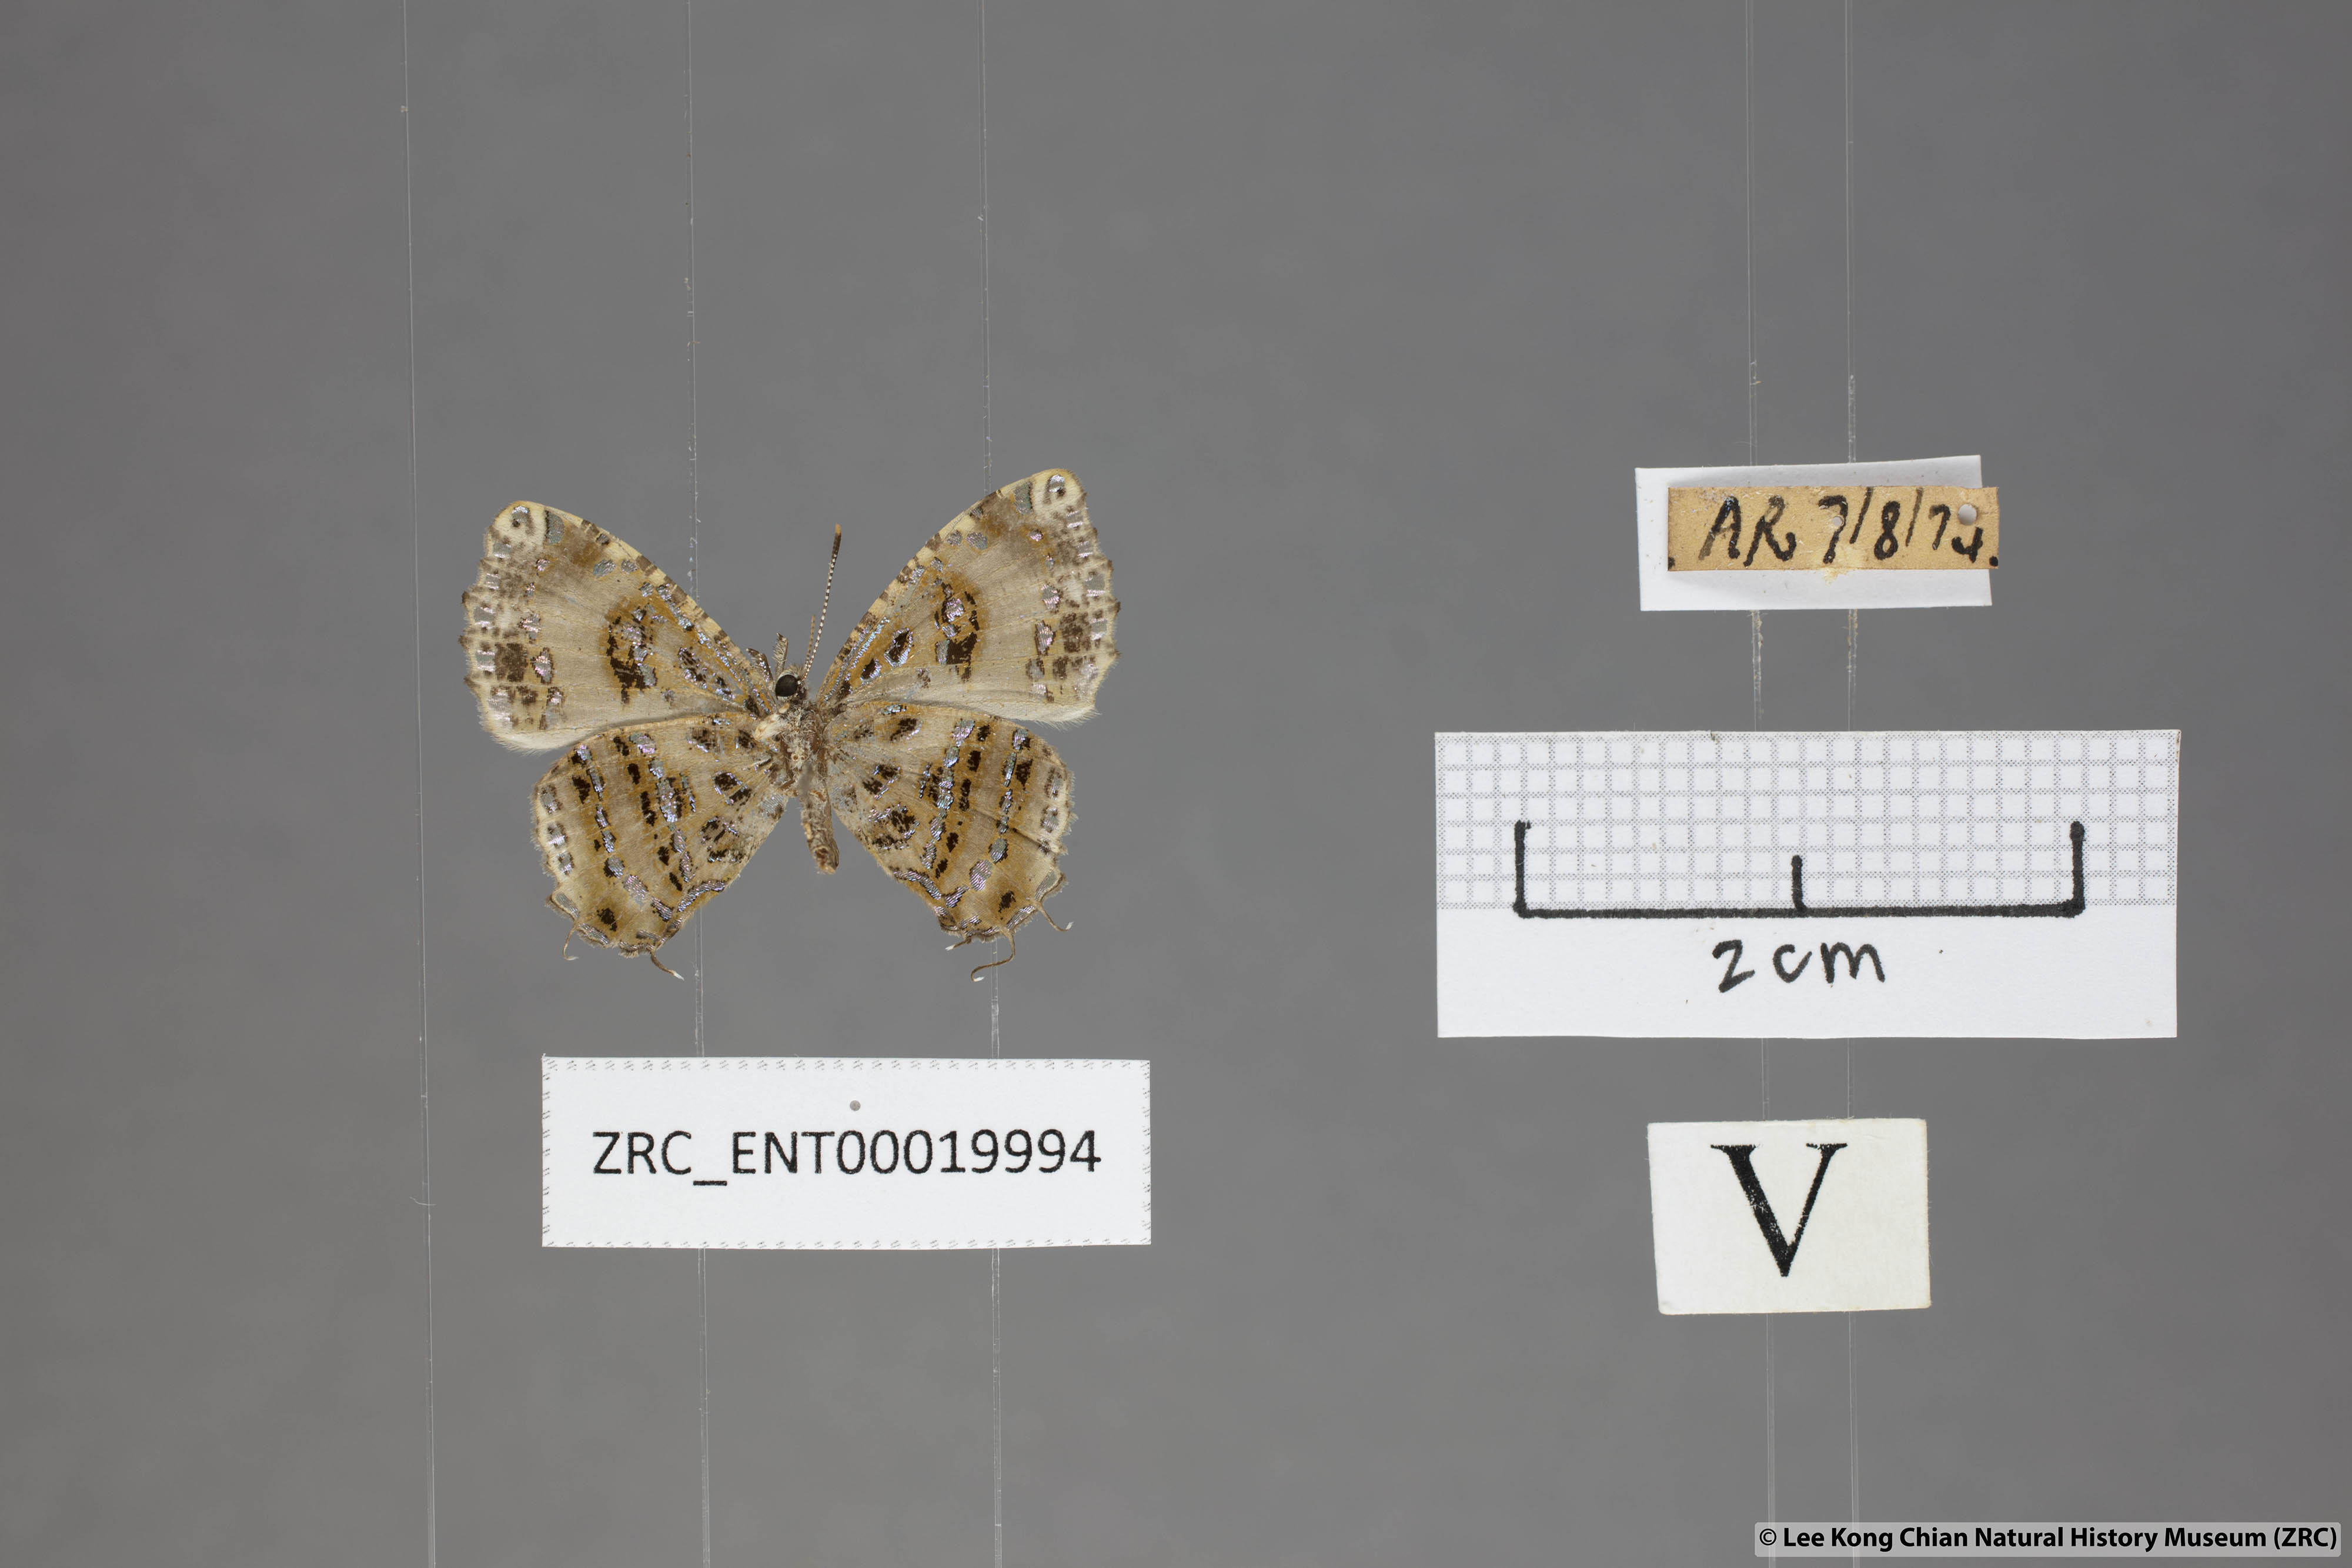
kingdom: Animalia
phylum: Arthropoda
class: Insecta
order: Lepidoptera
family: Lycaenidae
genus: Catapaecilma
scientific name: Catapaecilma elegans
